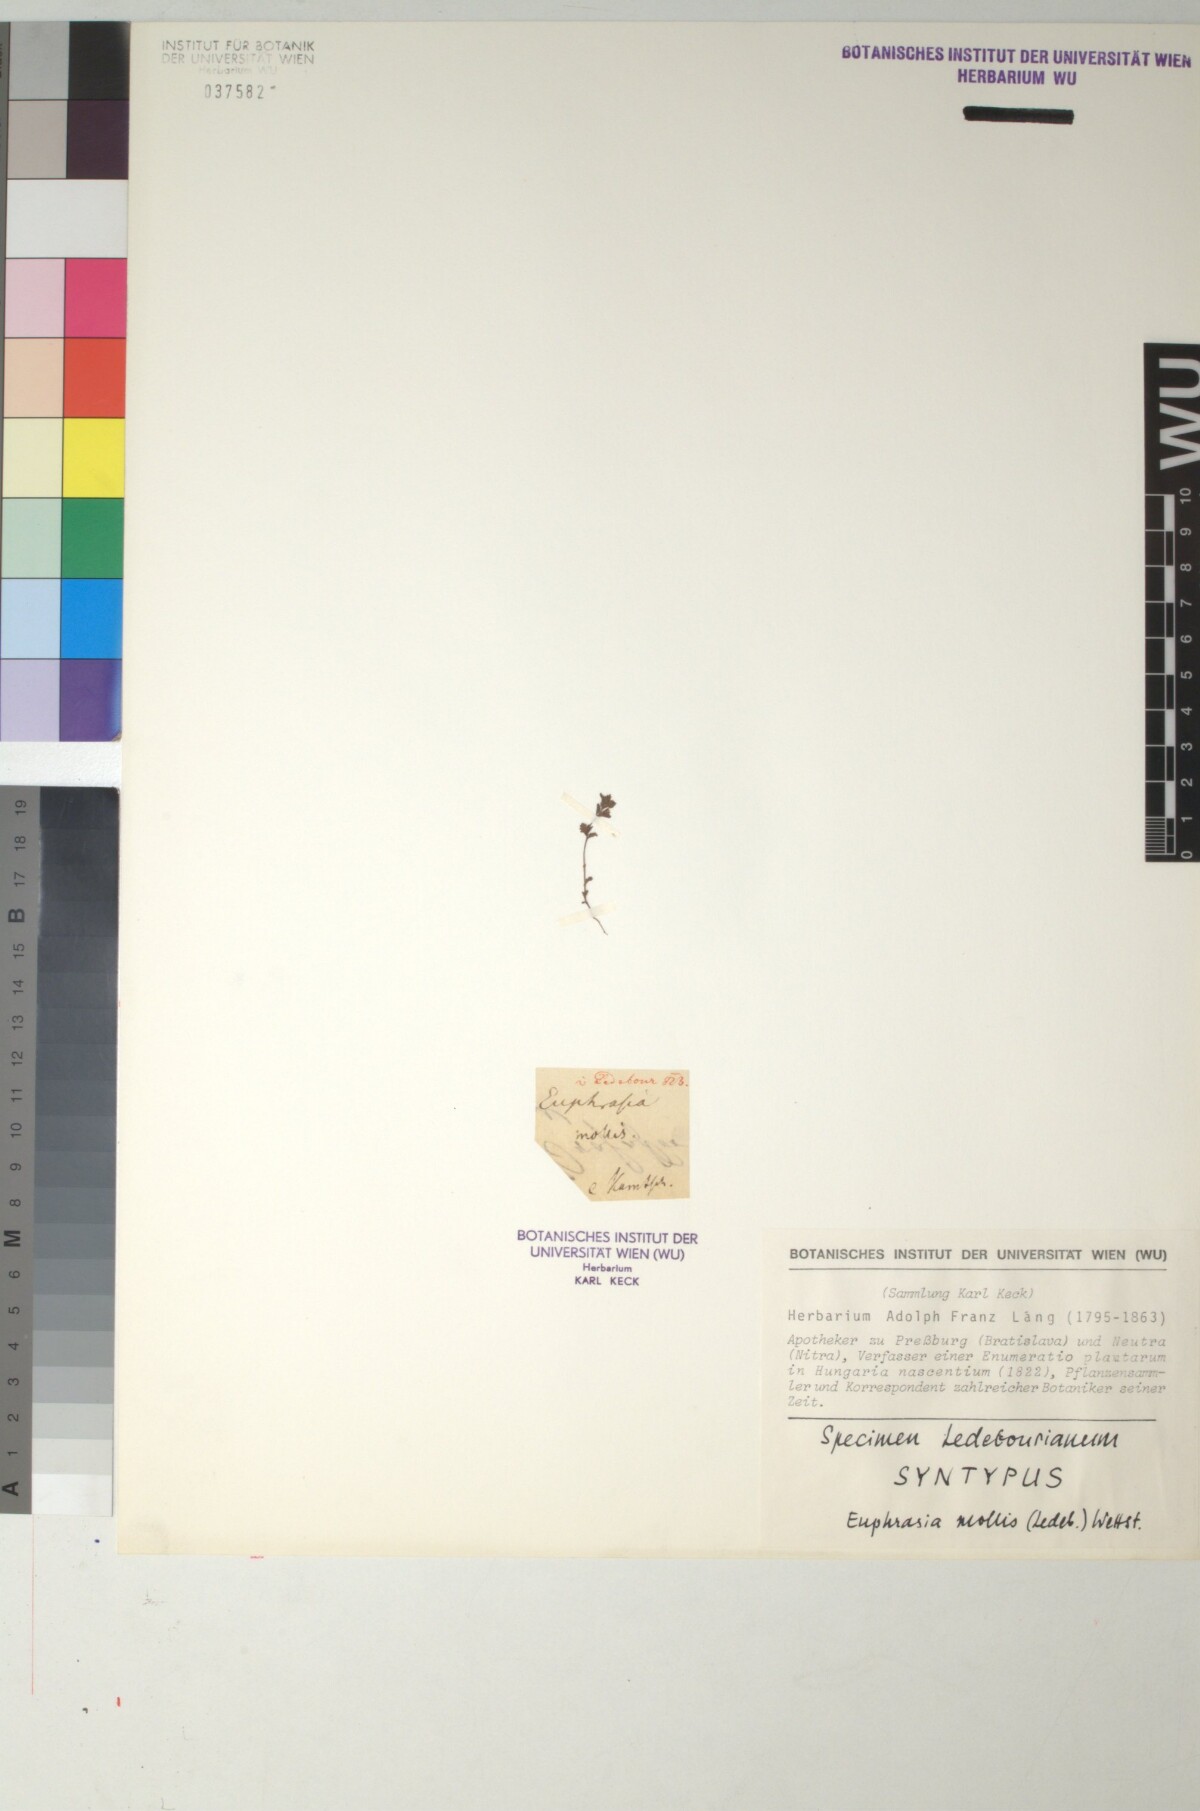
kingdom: Plantae
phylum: Tracheophyta
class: Magnoliopsida
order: Lamiales
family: Orobanchaceae
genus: Euphrasia
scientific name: Euphrasia mollis
